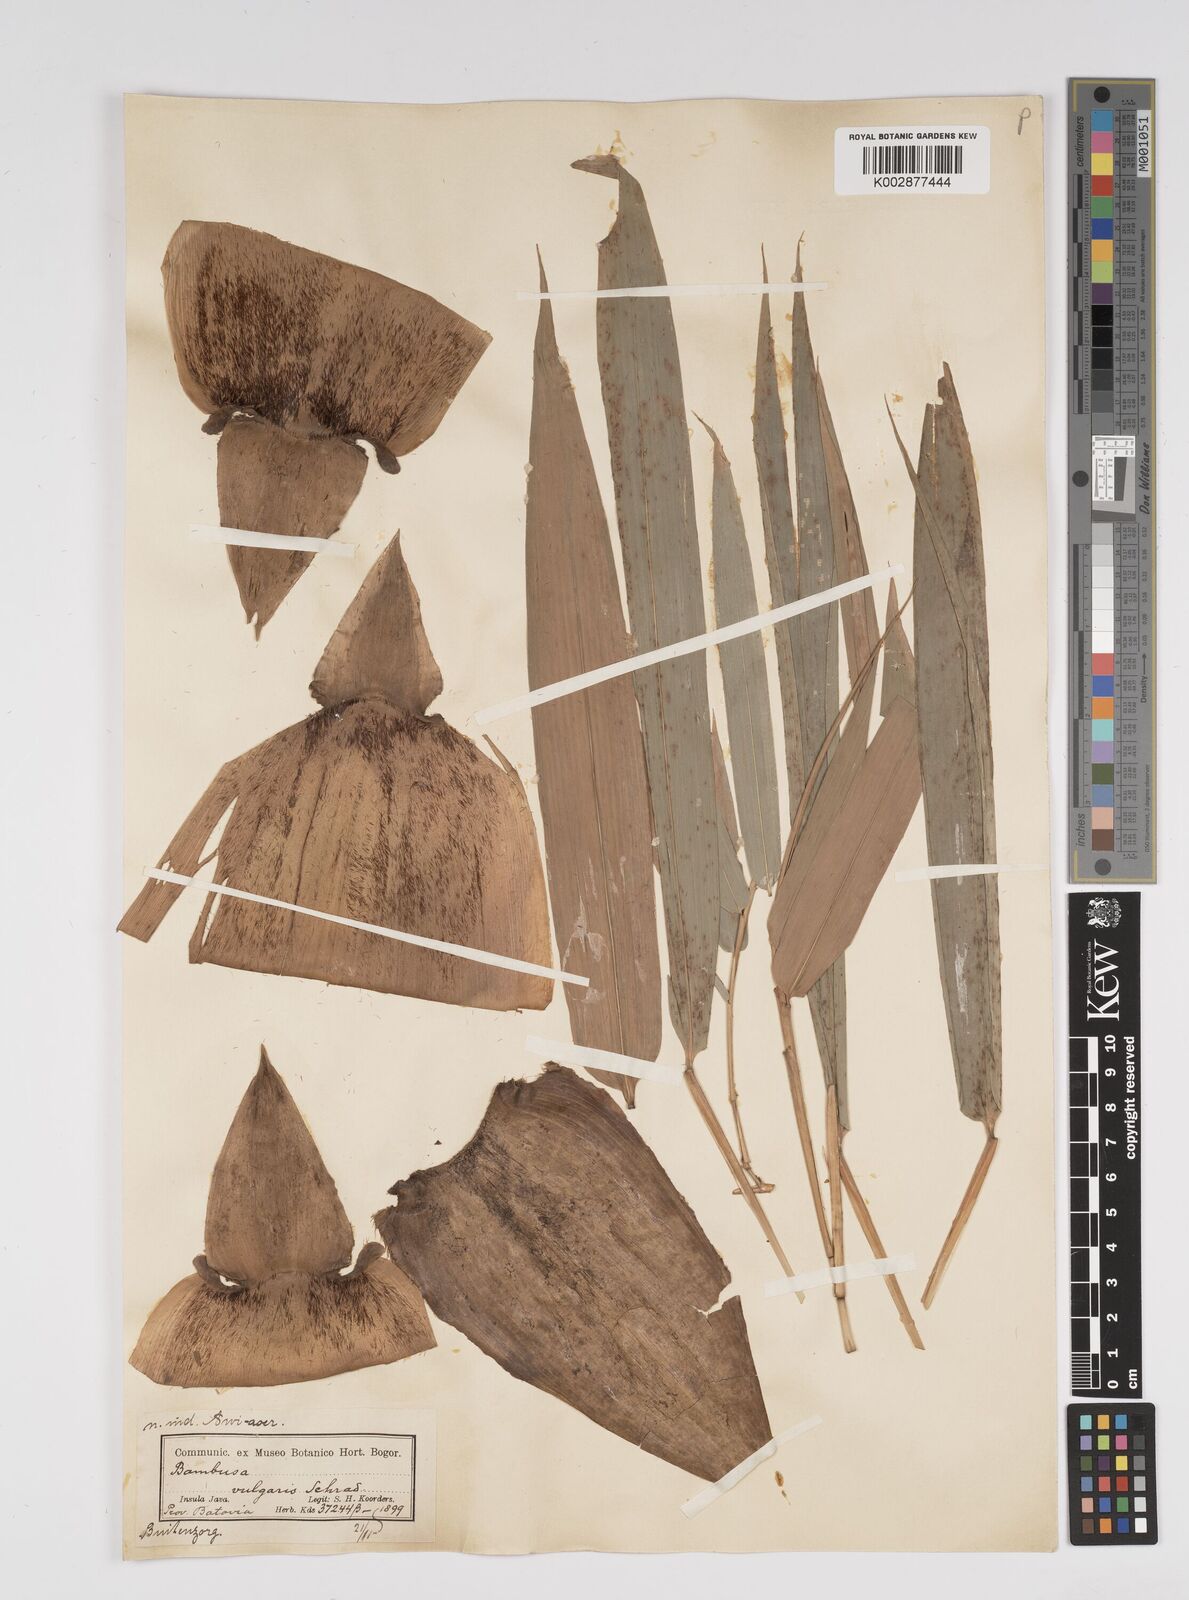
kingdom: Plantae
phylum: Tracheophyta
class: Liliopsida
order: Poales
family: Poaceae
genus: Bambusa
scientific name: Bambusa vulgaris
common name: Common bamboo
